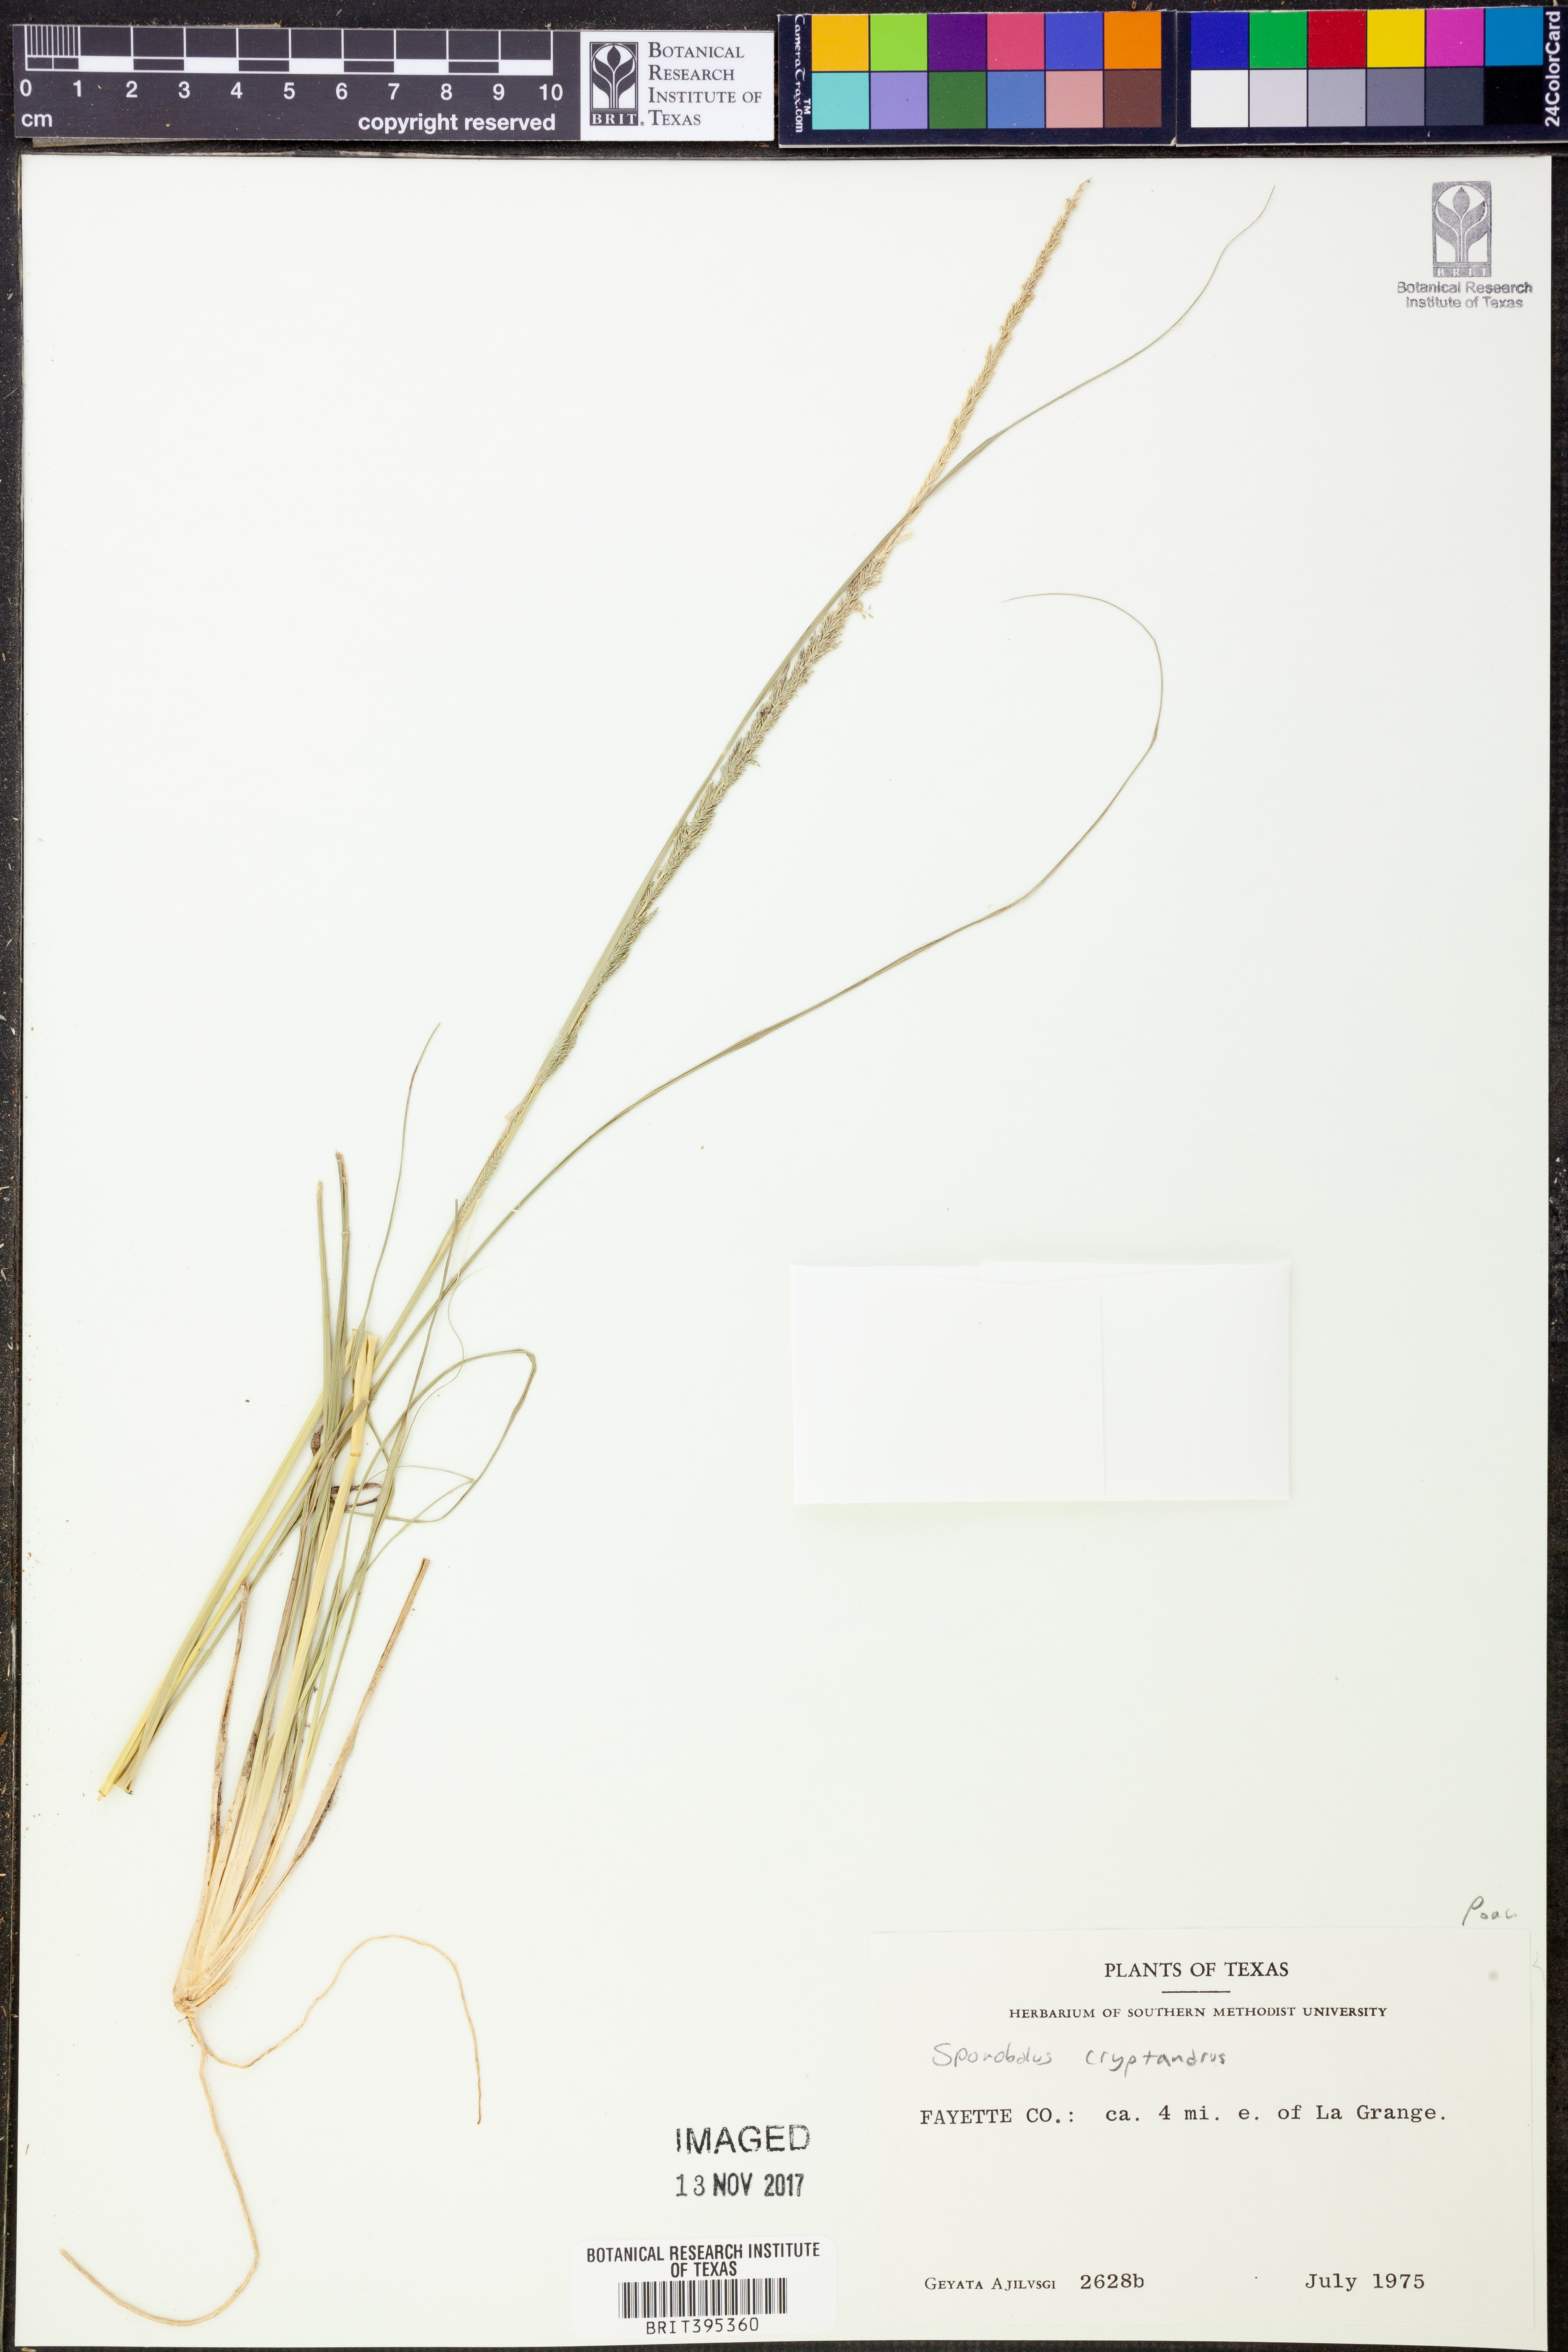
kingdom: Plantae
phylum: Tracheophyta
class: Liliopsida
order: Poales
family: Poaceae
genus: Sporobolus
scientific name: Sporobolus cryptandrus
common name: Sand dropseed
